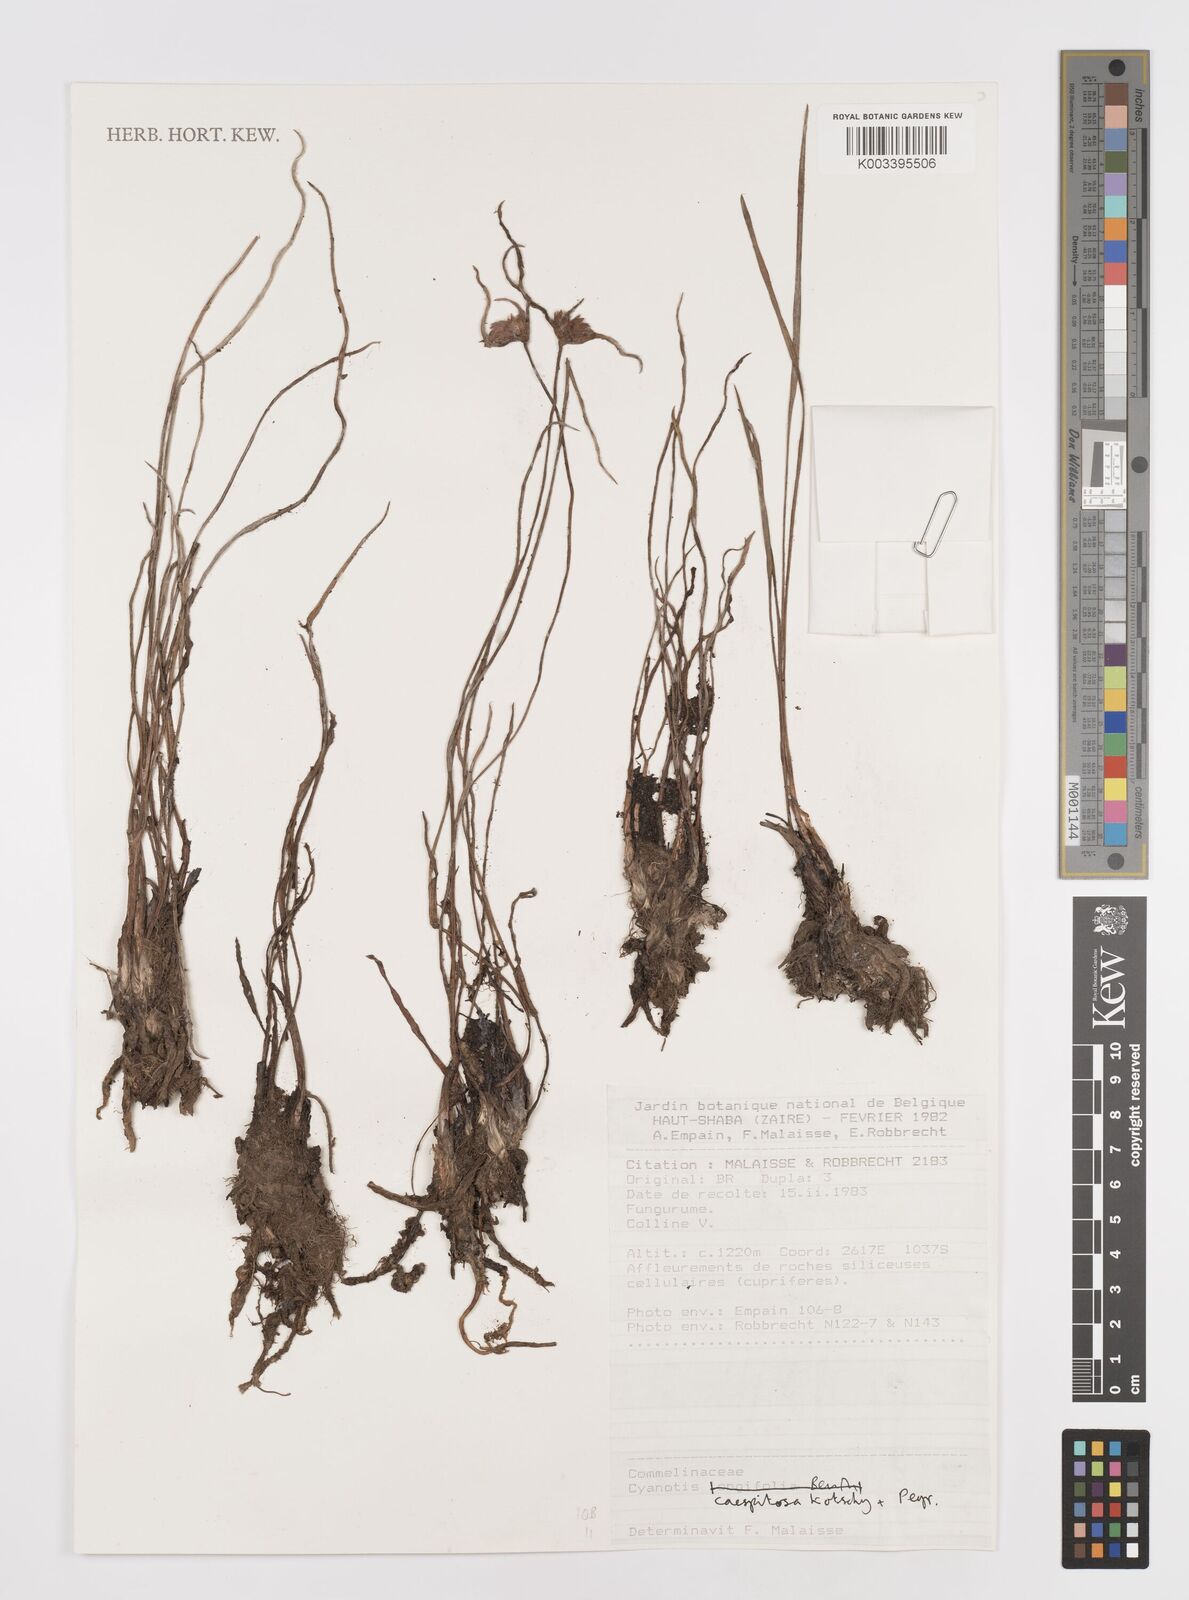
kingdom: Plantae
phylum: Tracheophyta
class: Liliopsida
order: Commelinales
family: Commelinaceae
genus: Cyanotis
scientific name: Cyanotis caespitosa
